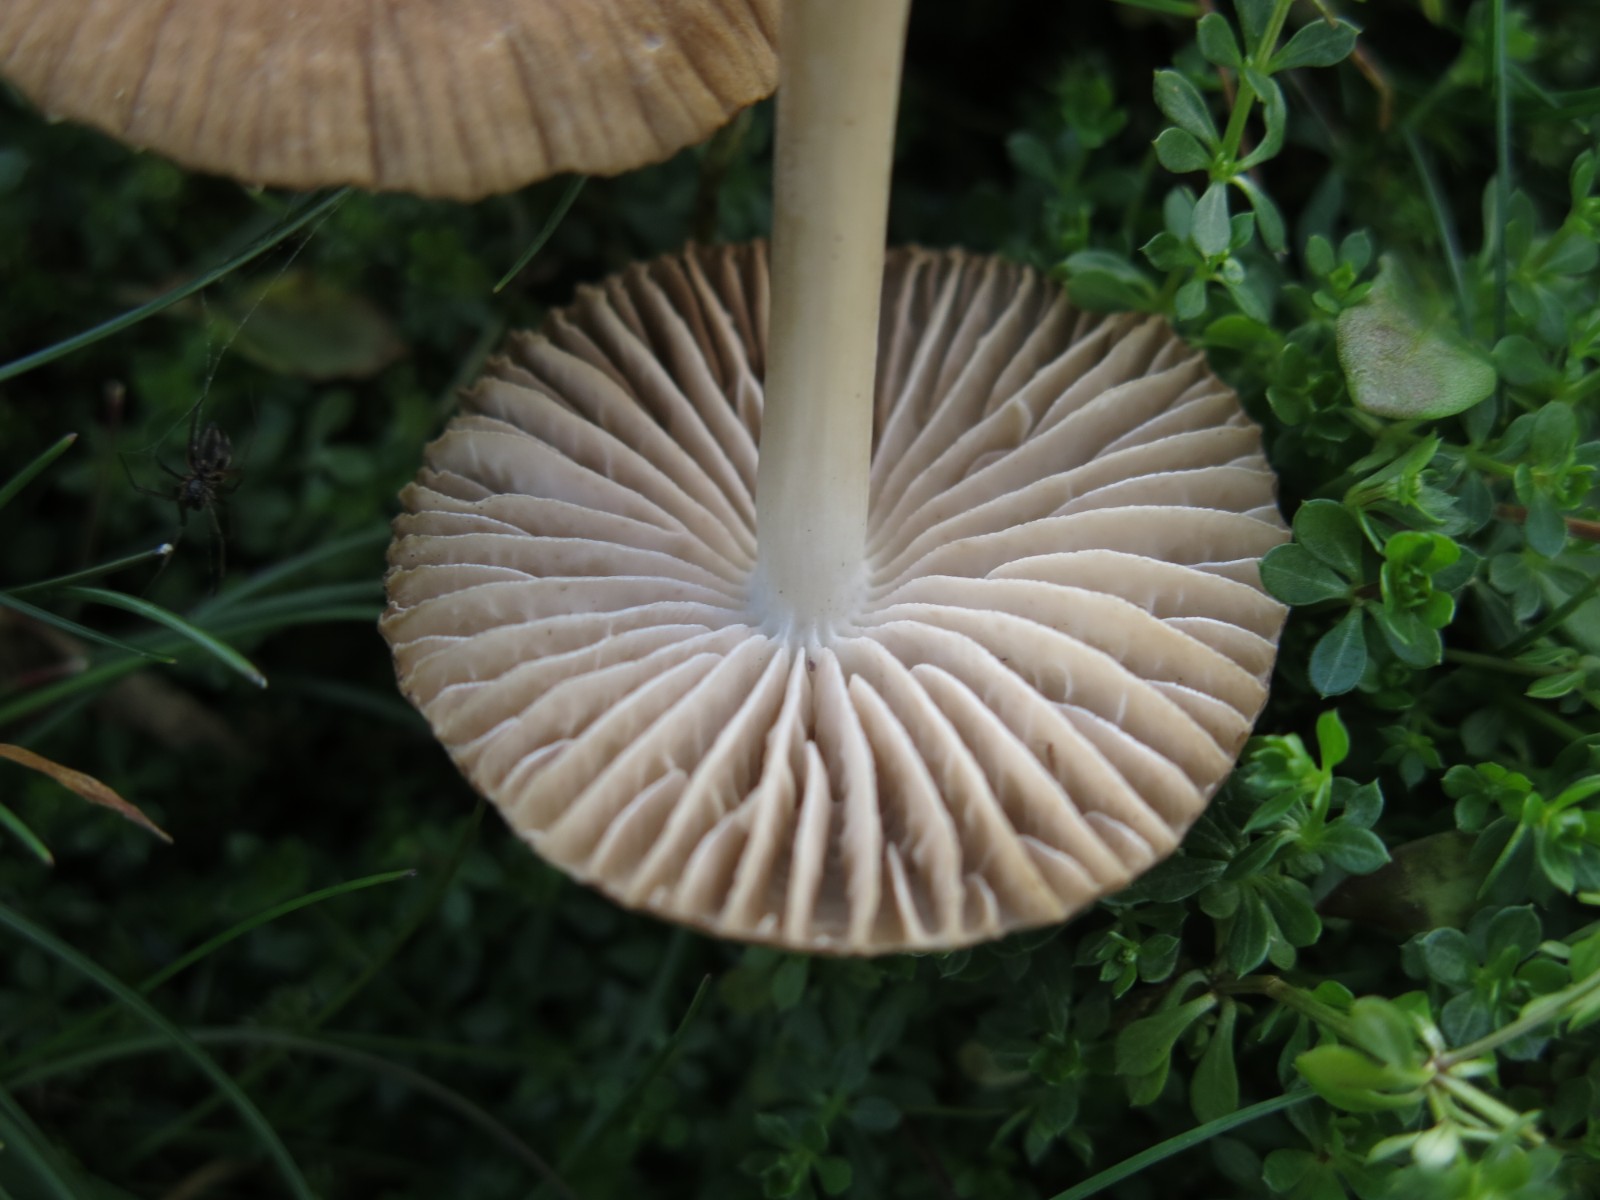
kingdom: Fungi
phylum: Basidiomycota
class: Agaricomycetes
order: Agaricales
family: Mycenaceae
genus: Mycena
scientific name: Mycena megaspora
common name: brusk-huesvamp
